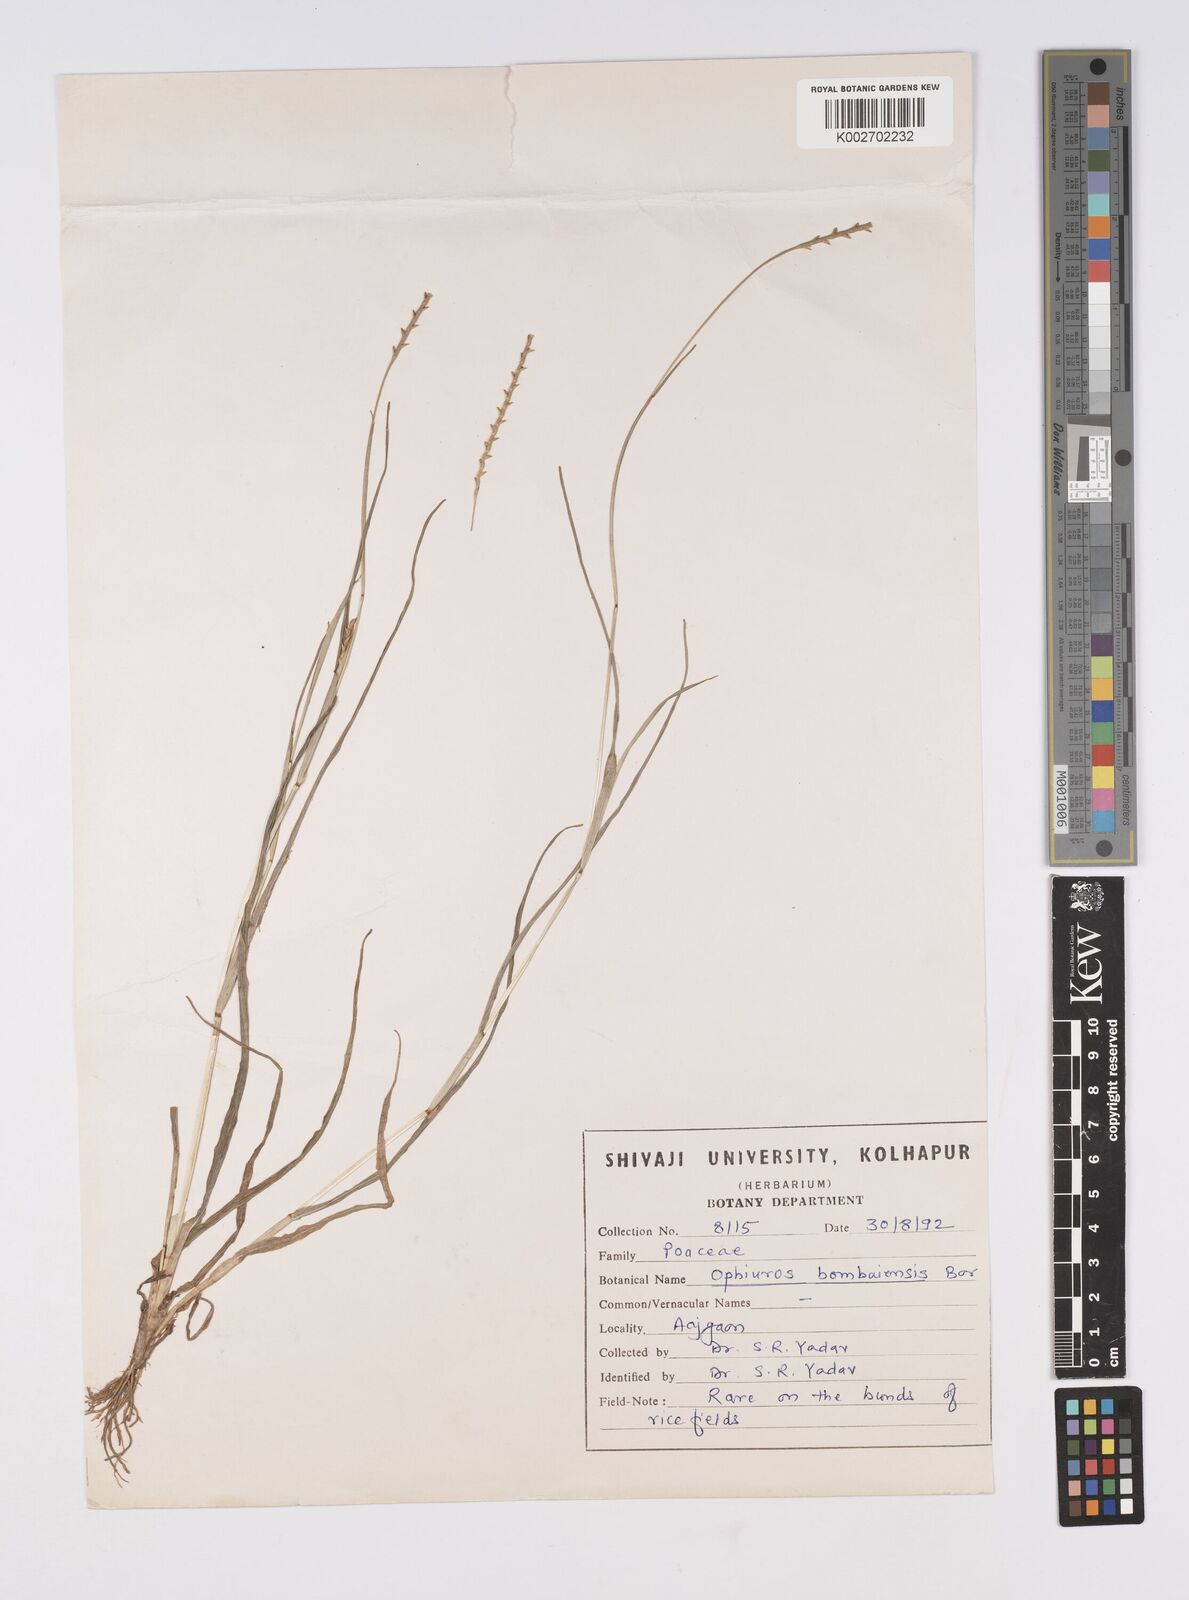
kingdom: Plantae
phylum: Tracheophyta
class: Liliopsida
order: Poales
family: Poaceae
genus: Glyphochloa
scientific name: Glyphochloa bombaiensis
